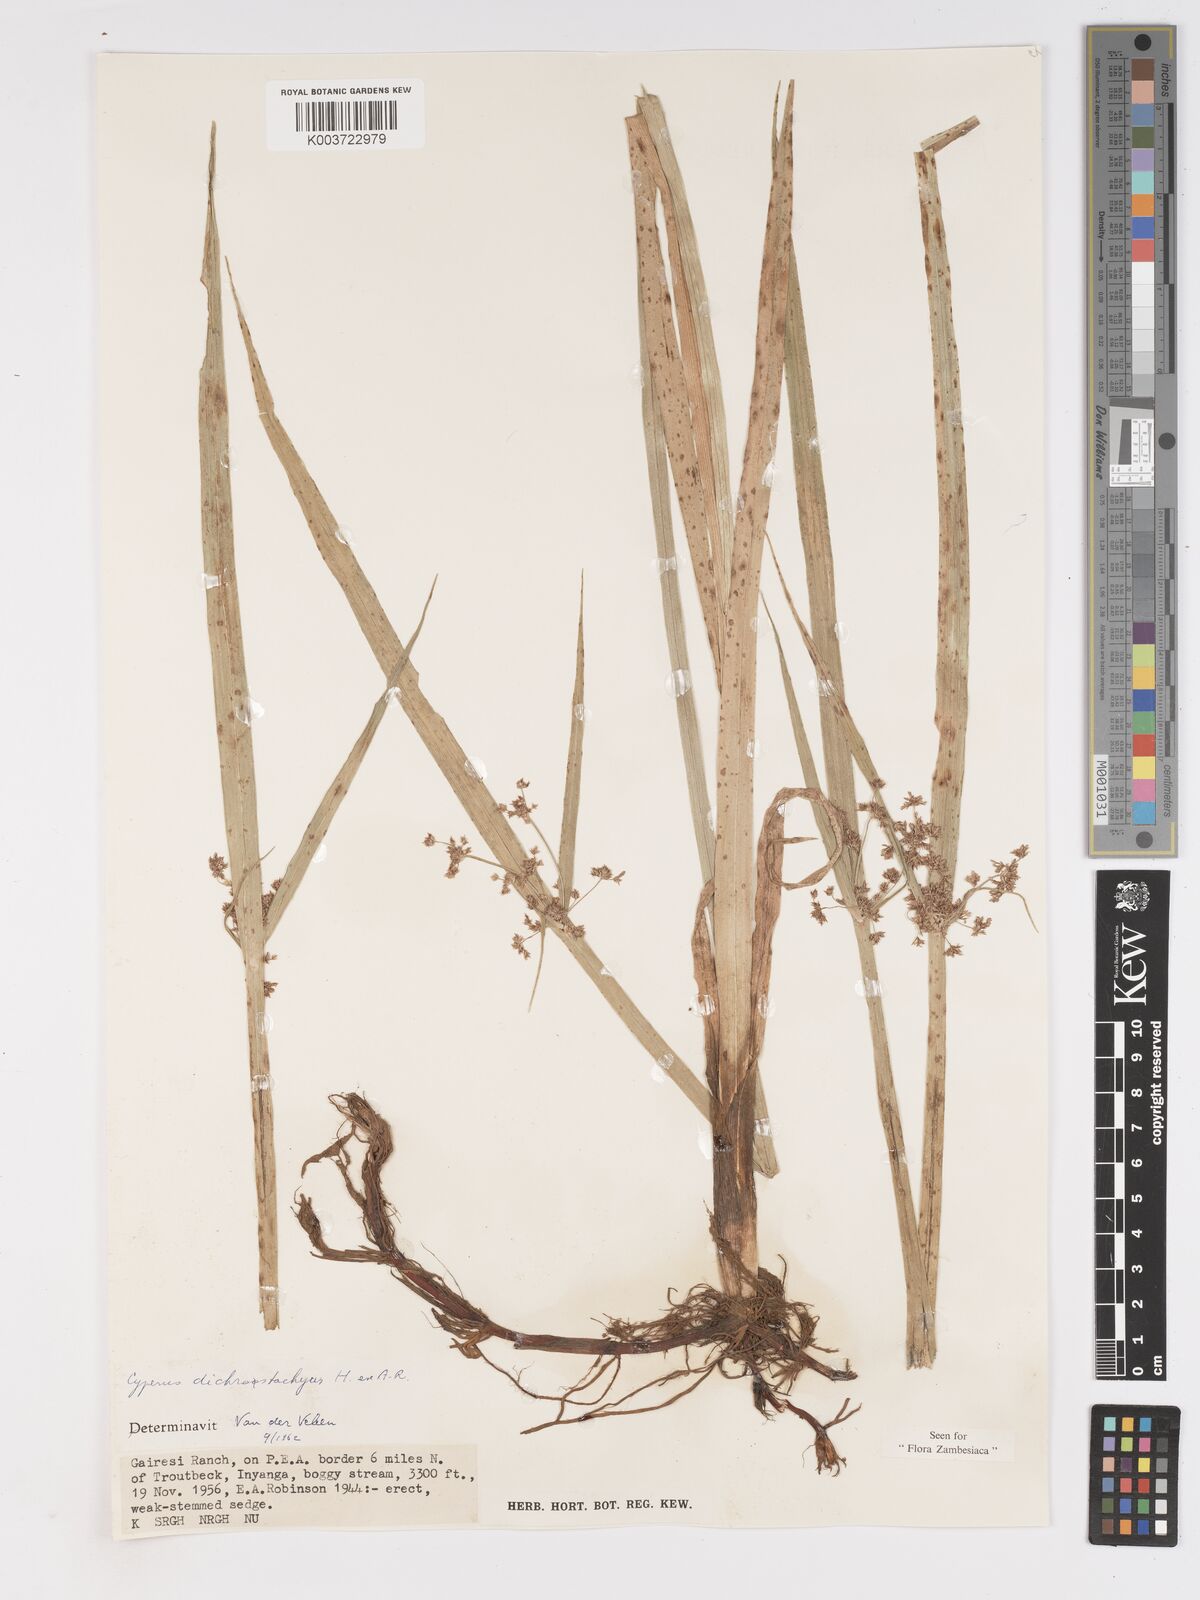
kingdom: Plantae
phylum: Tracheophyta
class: Liliopsida
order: Poales
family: Cyperaceae
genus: Cyperus
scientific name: Cyperus dichrostachyus
